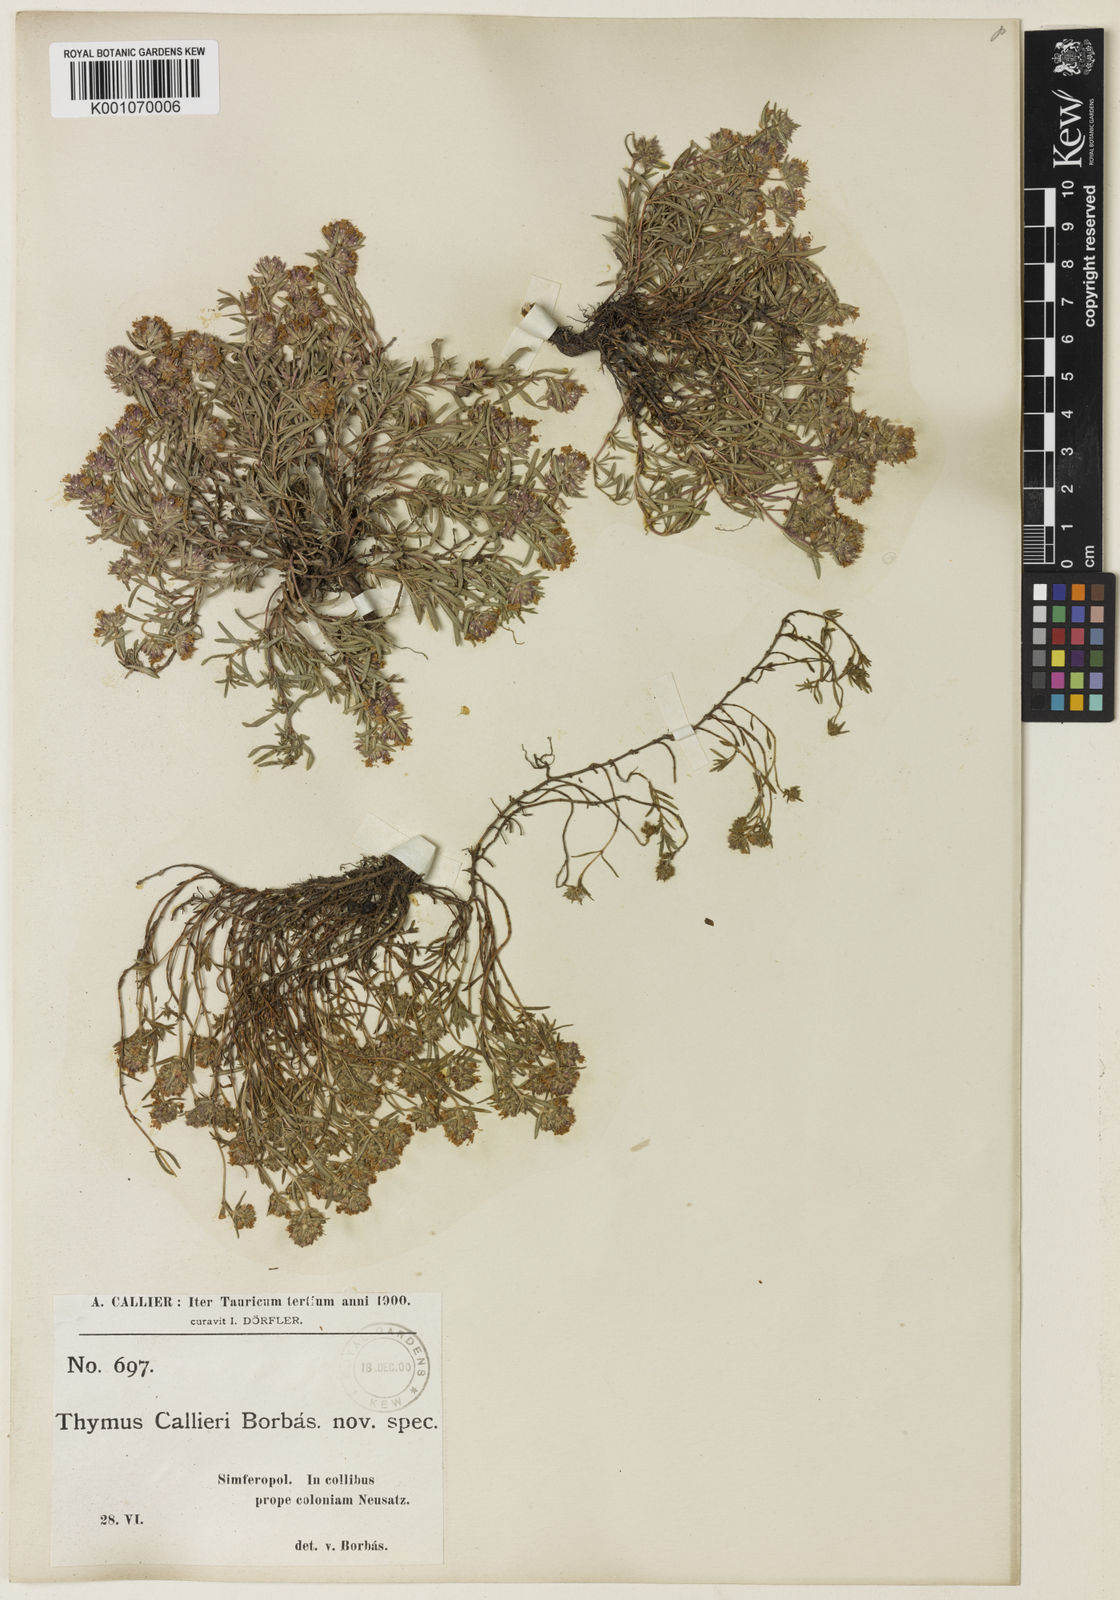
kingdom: Plantae
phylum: Tracheophyta
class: Magnoliopsida
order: Lamiales
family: Lamiaceae
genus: Thymus
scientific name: Thymus urumovii
